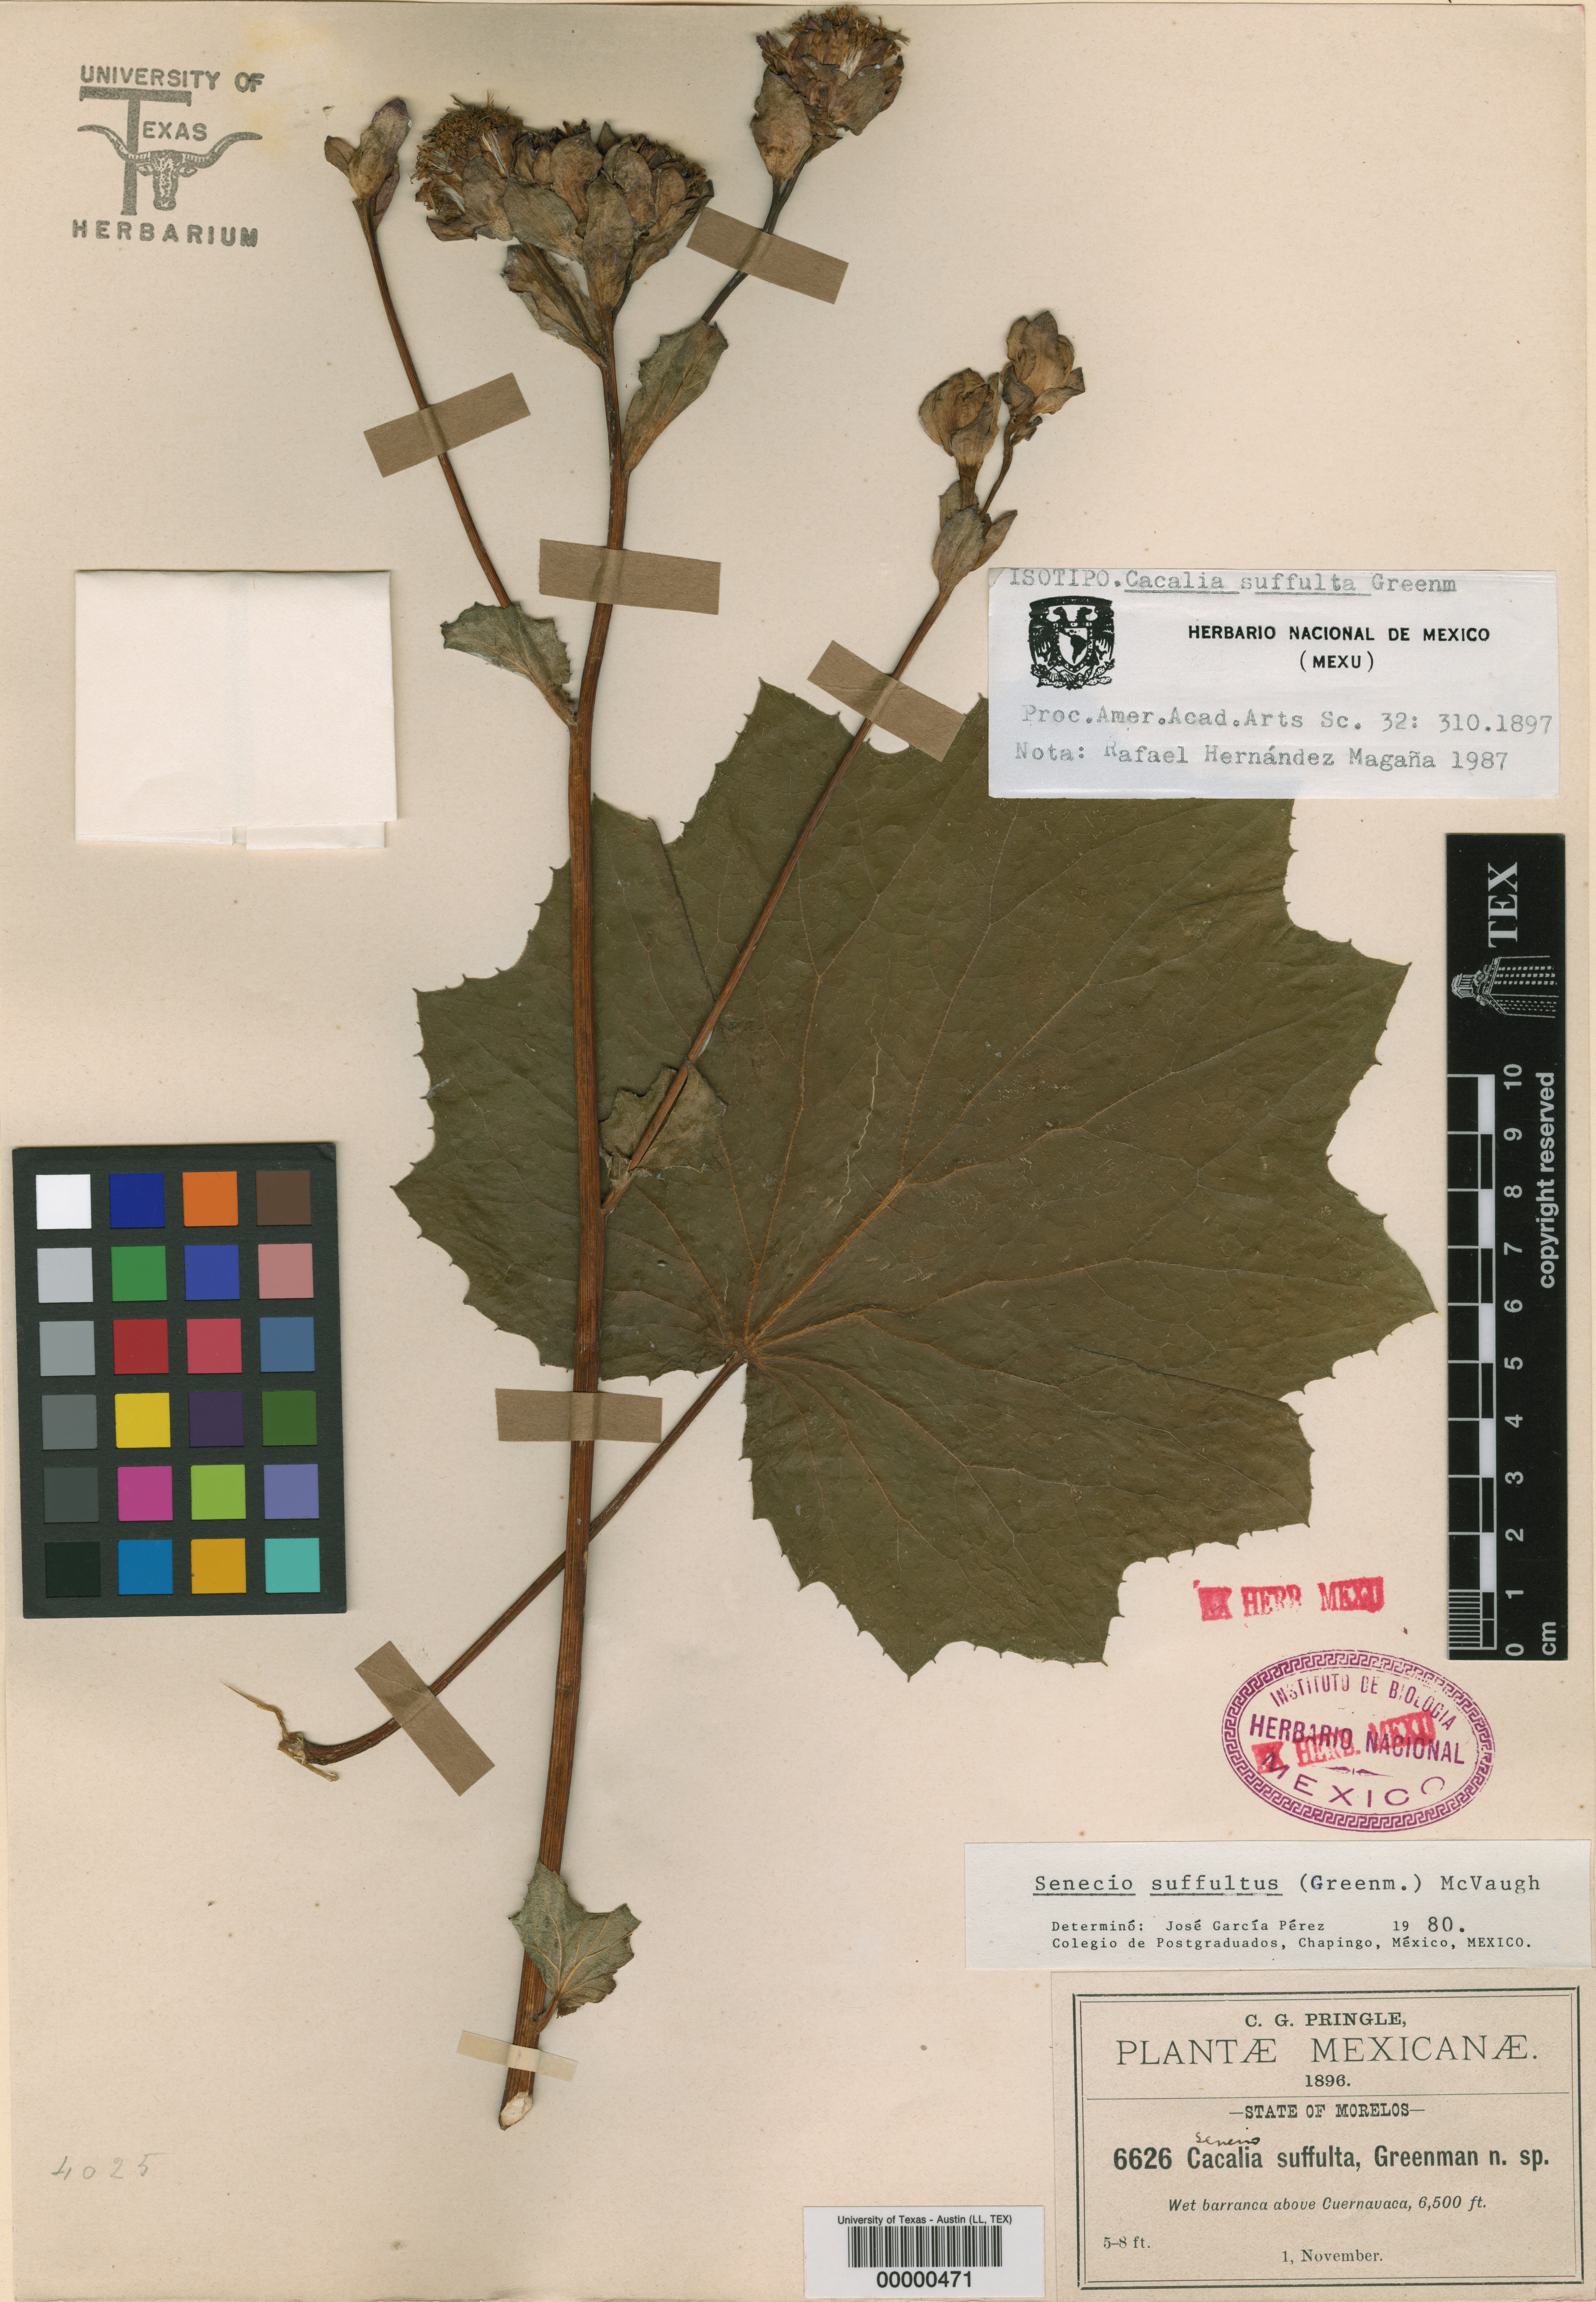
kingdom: Plantae
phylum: Tracheophyta
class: Magnoliopsida
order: Asterales
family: Asteraceae
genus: Roldana
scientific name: Roldana suffulta
